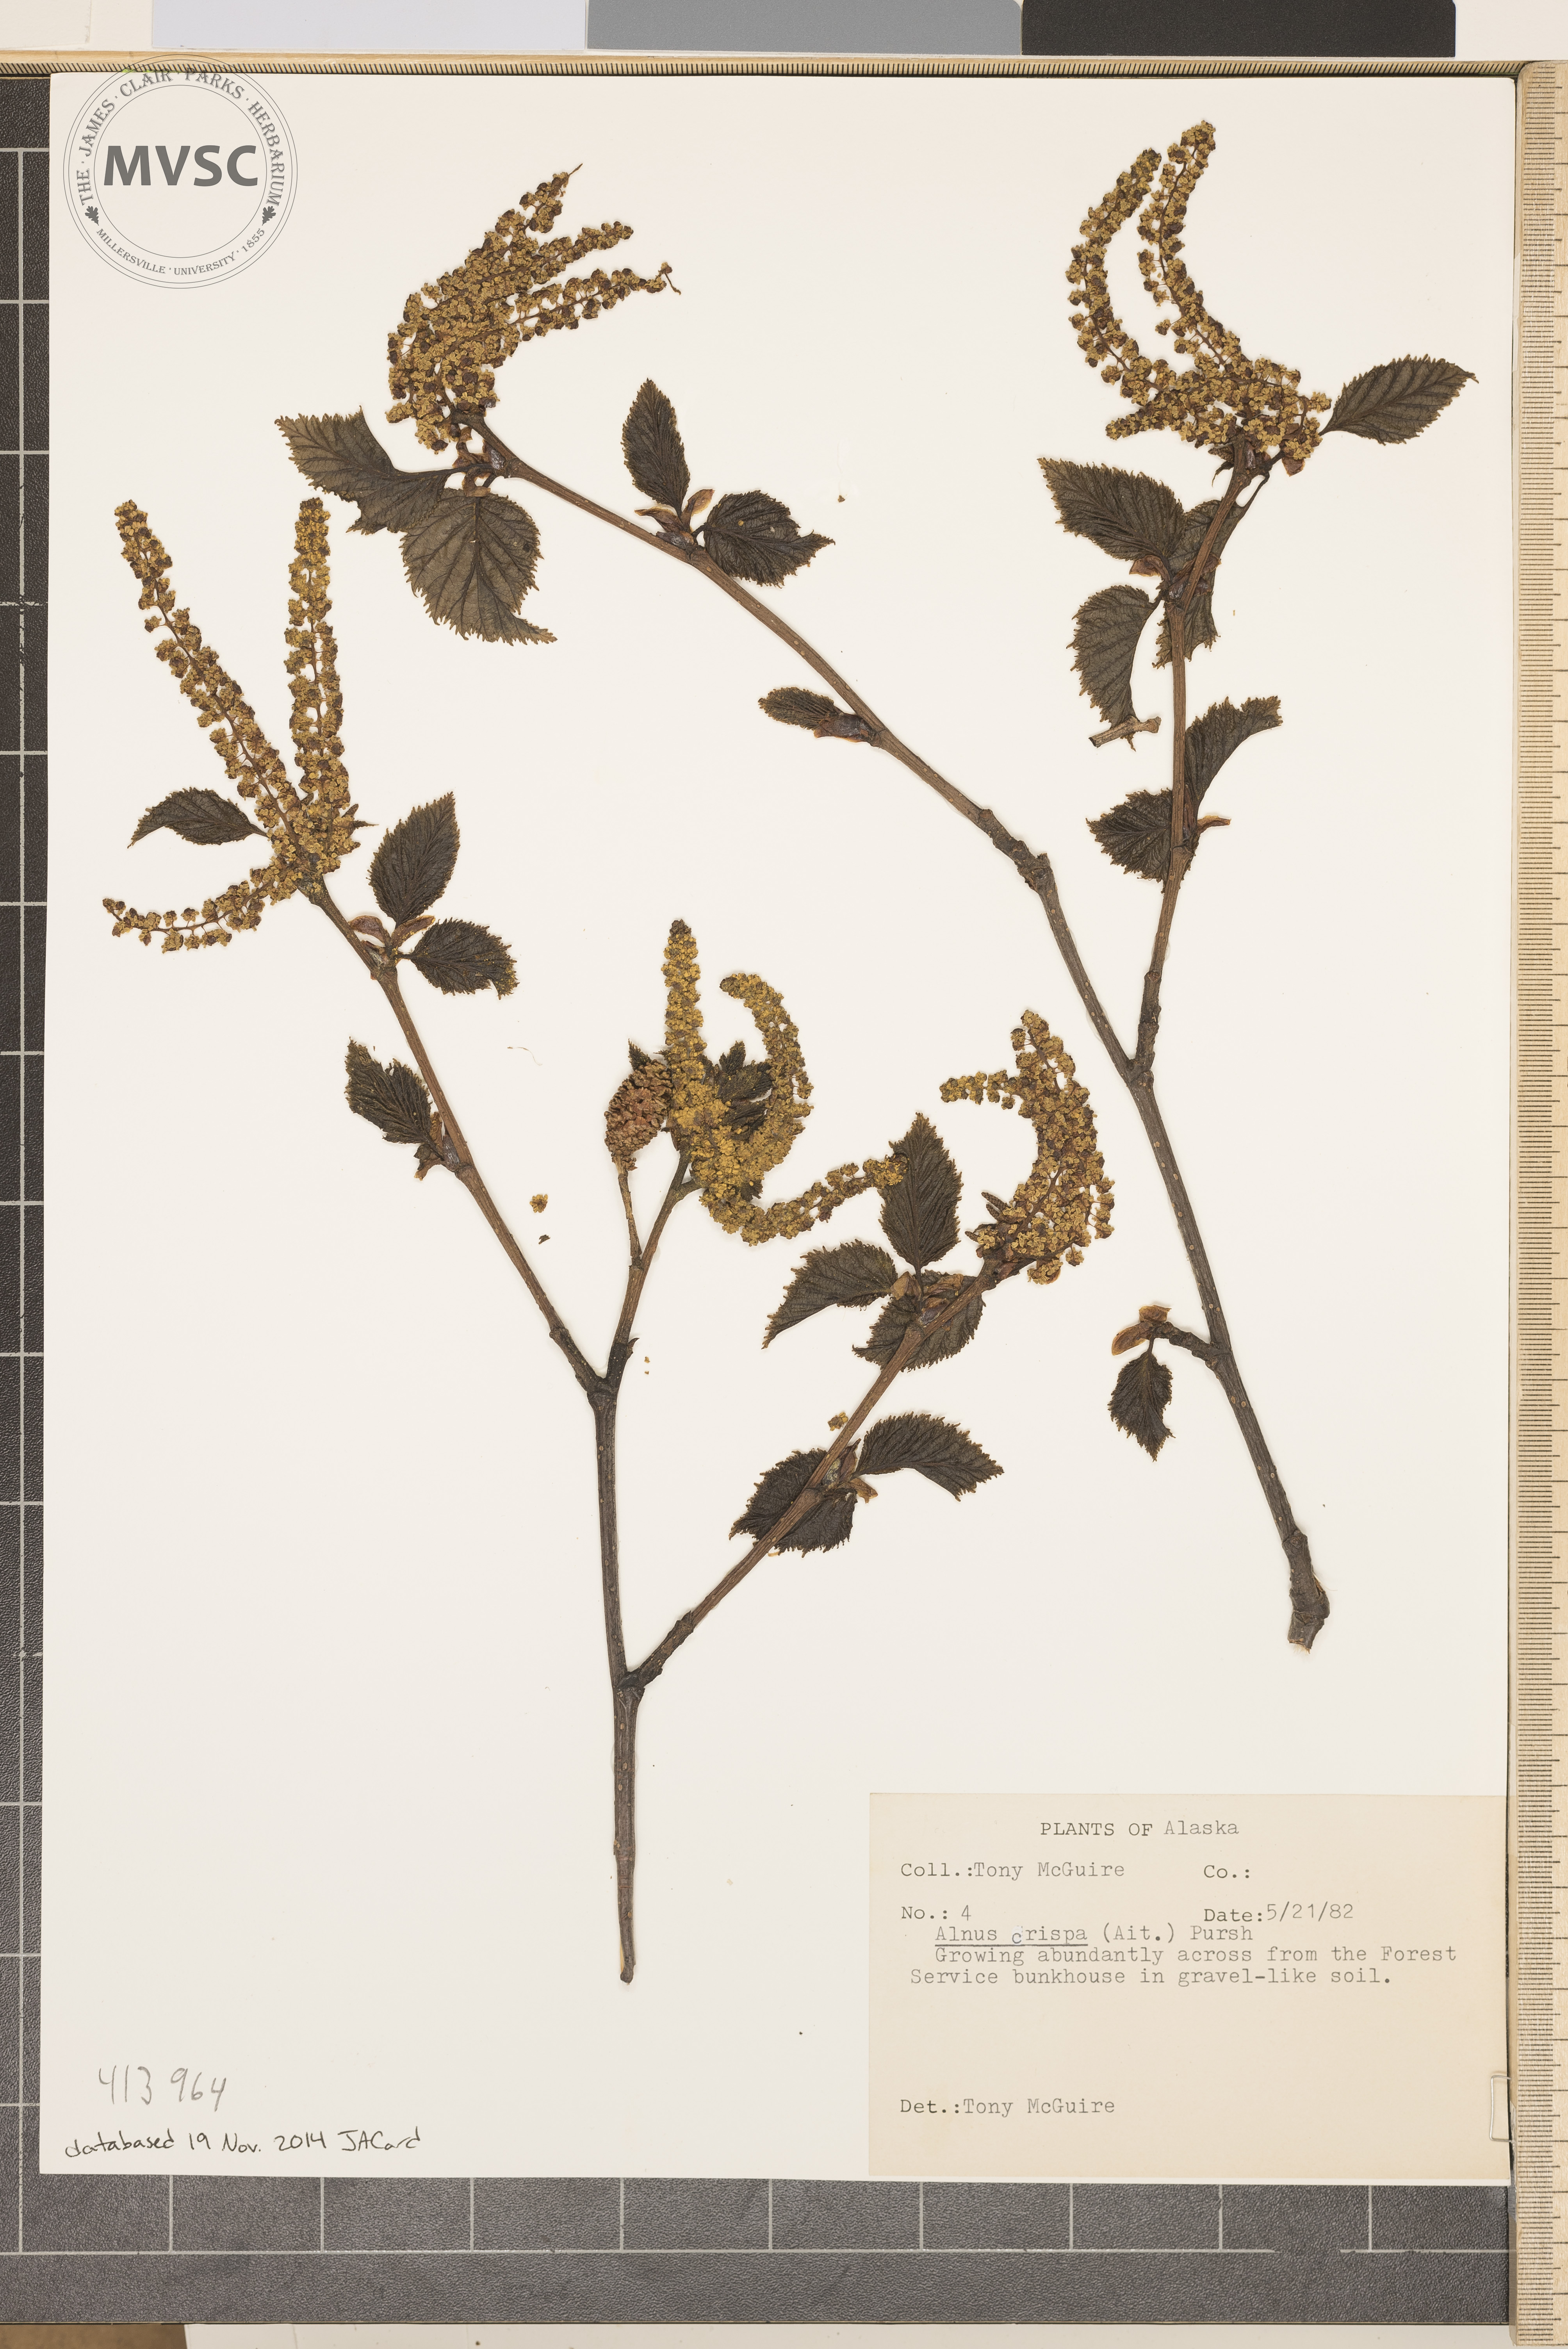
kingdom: Plantae
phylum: Tracheophyta
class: Magnoliopsida
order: Fagales
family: Betulaceae
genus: Alnus
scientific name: Alnus alnobetula
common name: Green alder
